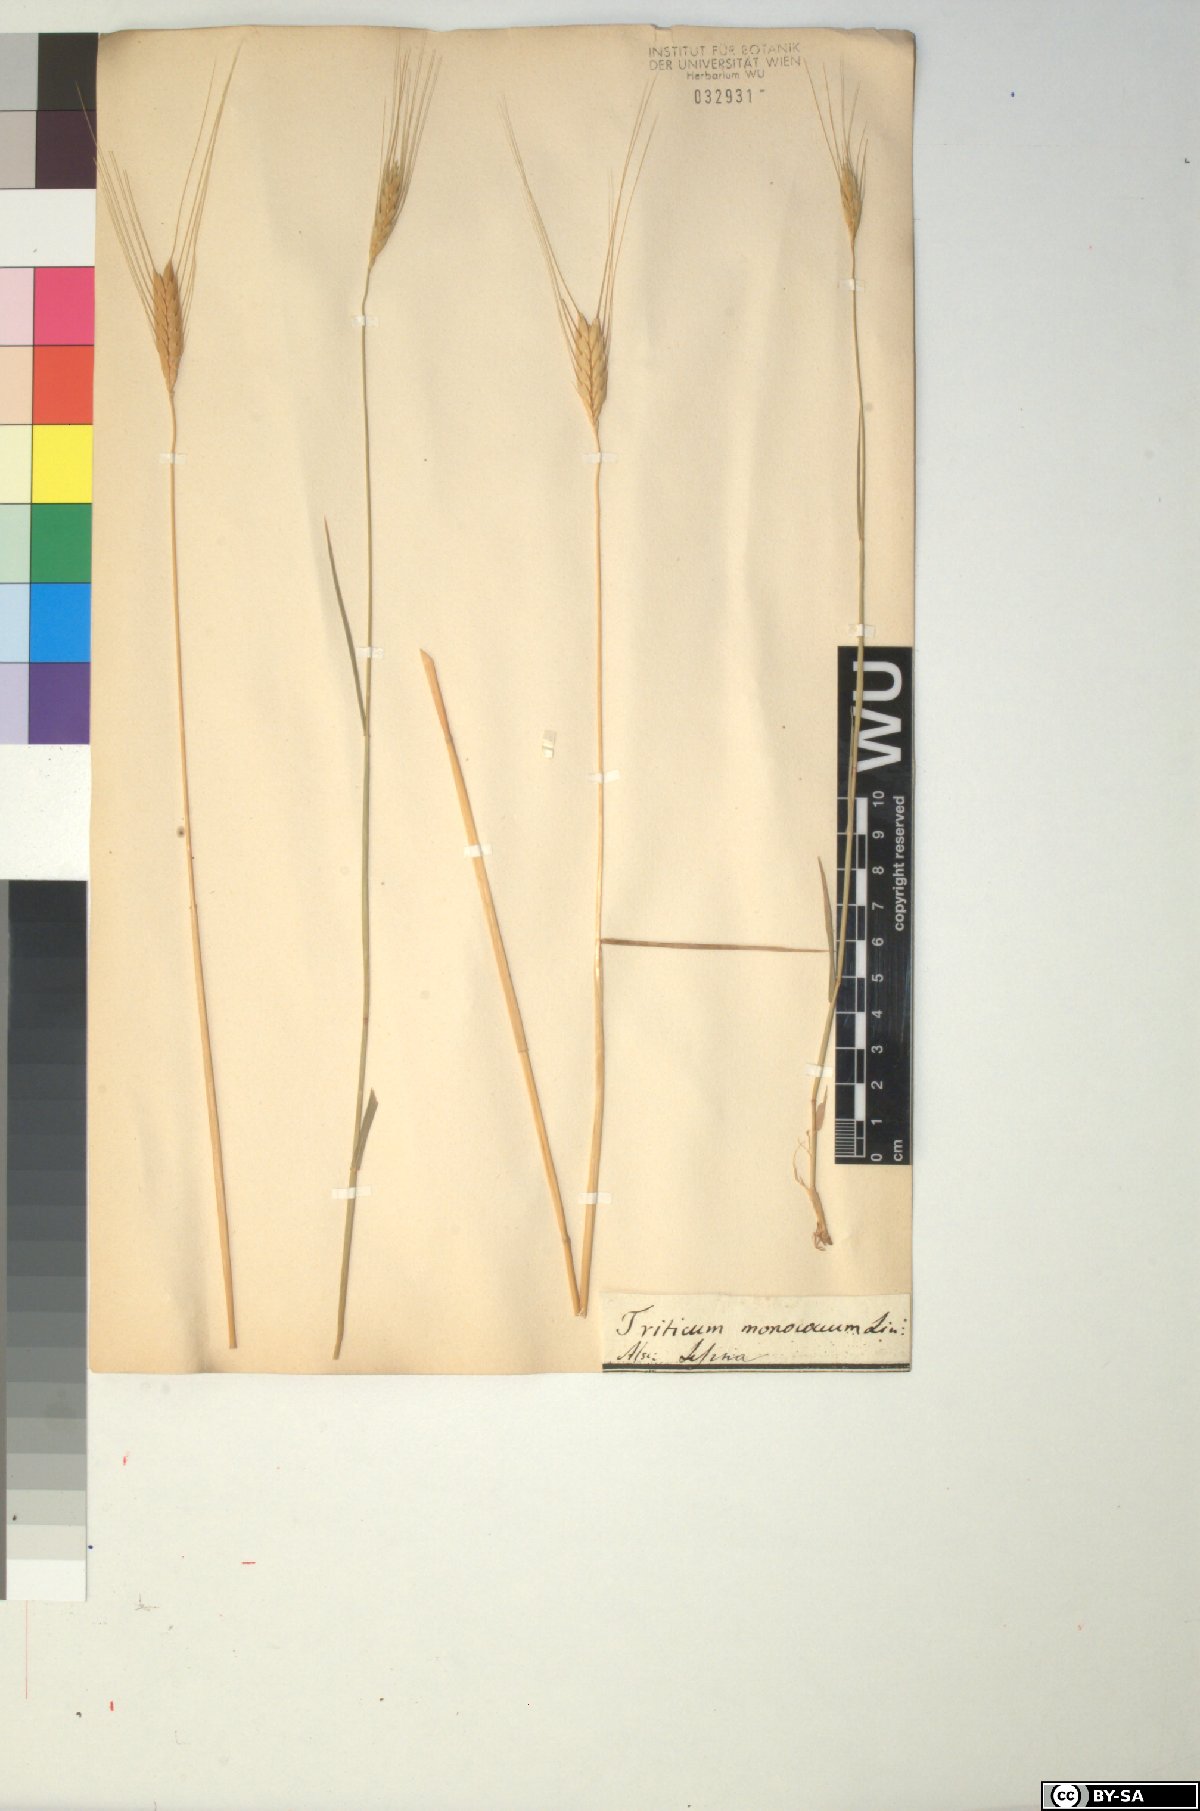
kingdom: Plantae
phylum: Tracheophyta
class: Liliopsida
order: Poales
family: Poaceae
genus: Triticum
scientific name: Triticum monococcum
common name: Einkorn
